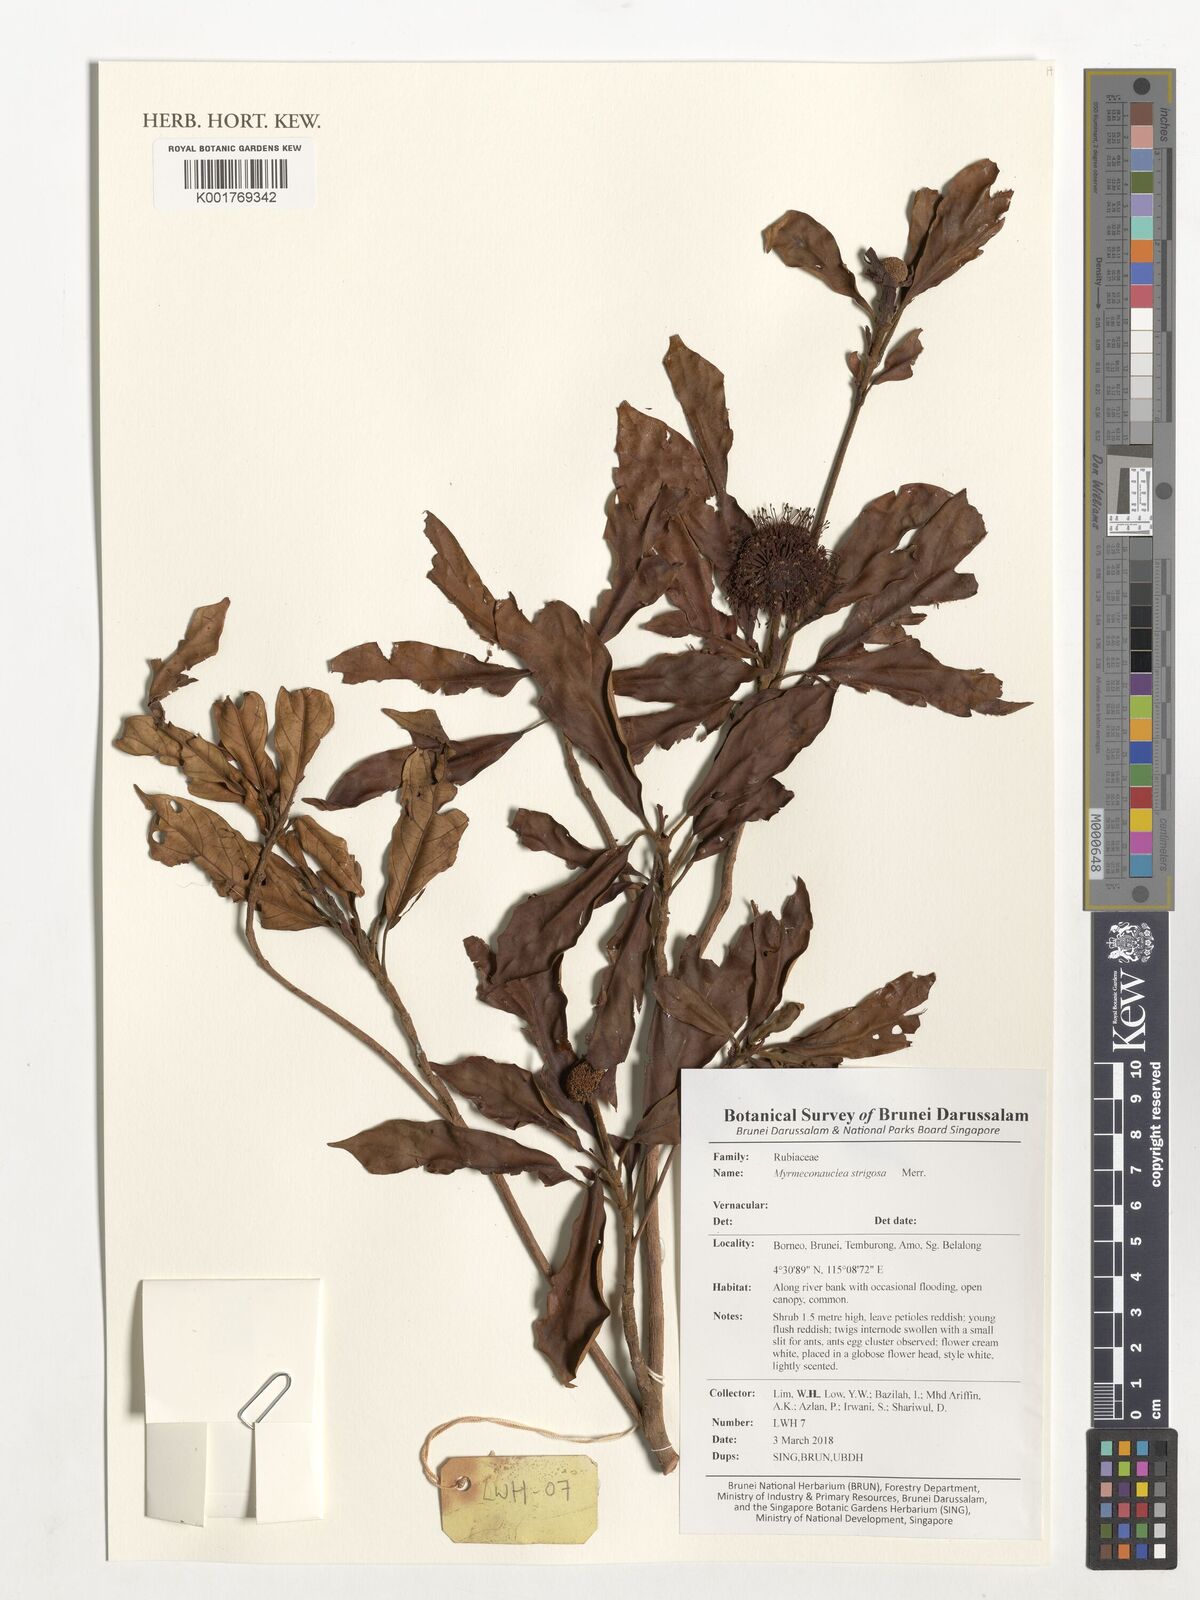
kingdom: Plantae
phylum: Tracheophyta
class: Magnoliopsida
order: Gentianales
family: Rubiaceae
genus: Myrmeconauclea
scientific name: Myrmeconauclea strigosa
